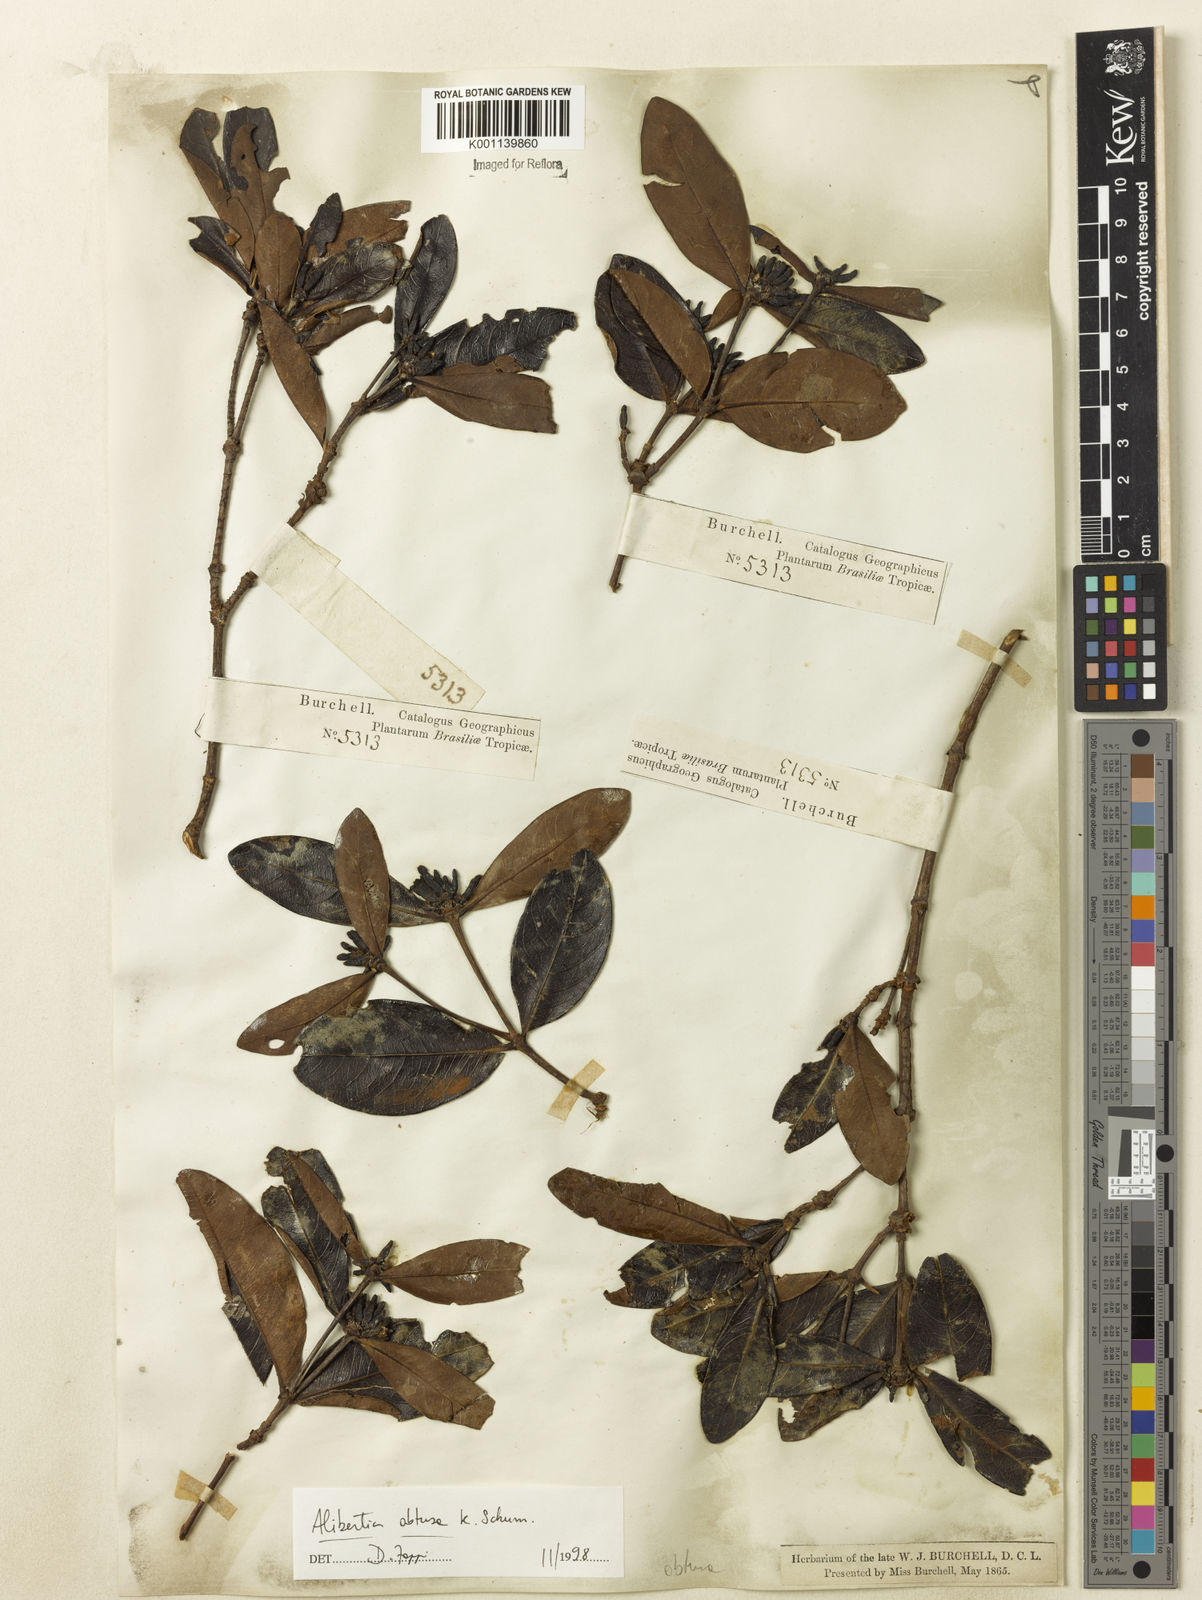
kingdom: Plantae
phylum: Tracheophyta
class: Magnoliopsida
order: Gentianales
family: Rubiaceae
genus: Cordiera
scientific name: Cordiera obtusa
